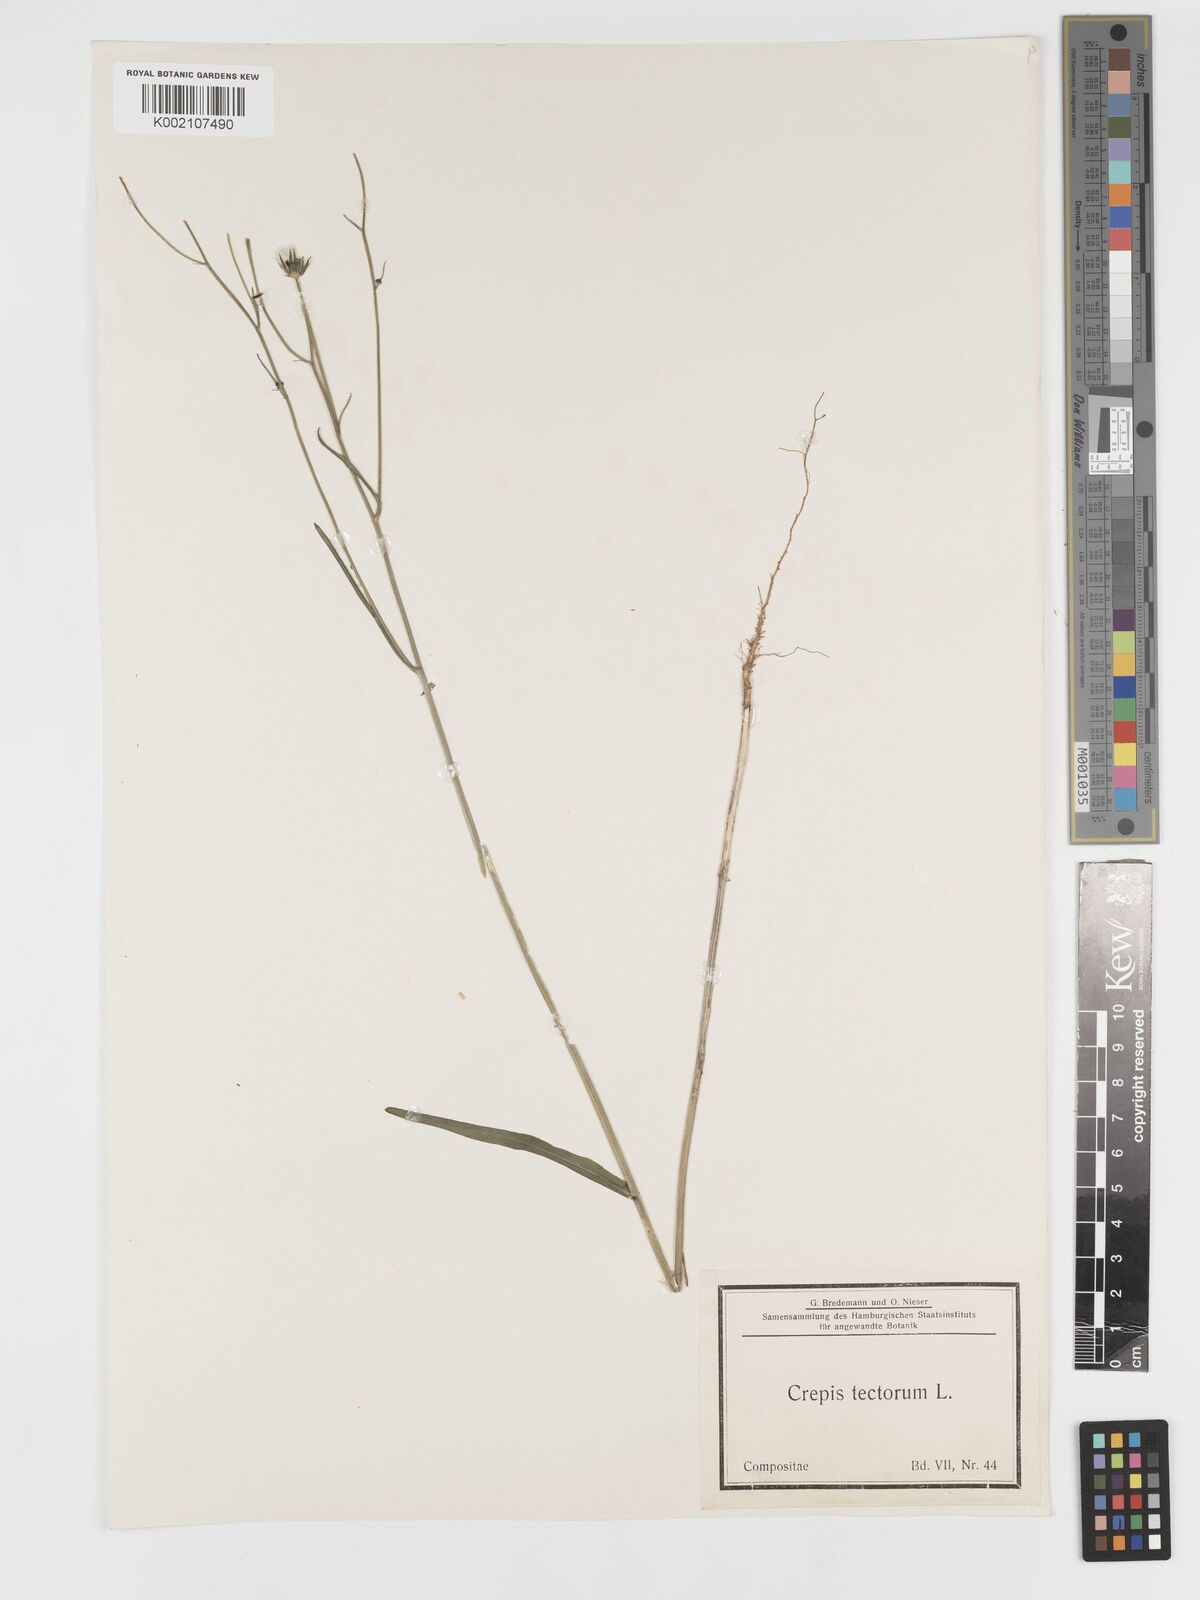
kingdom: Plantae
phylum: Tracheophyta
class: Magnoliopsida
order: Asterales
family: Asteraceae
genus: Crepis
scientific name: Crepis tectorum
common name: Narrow-leaved hawk's-beard
